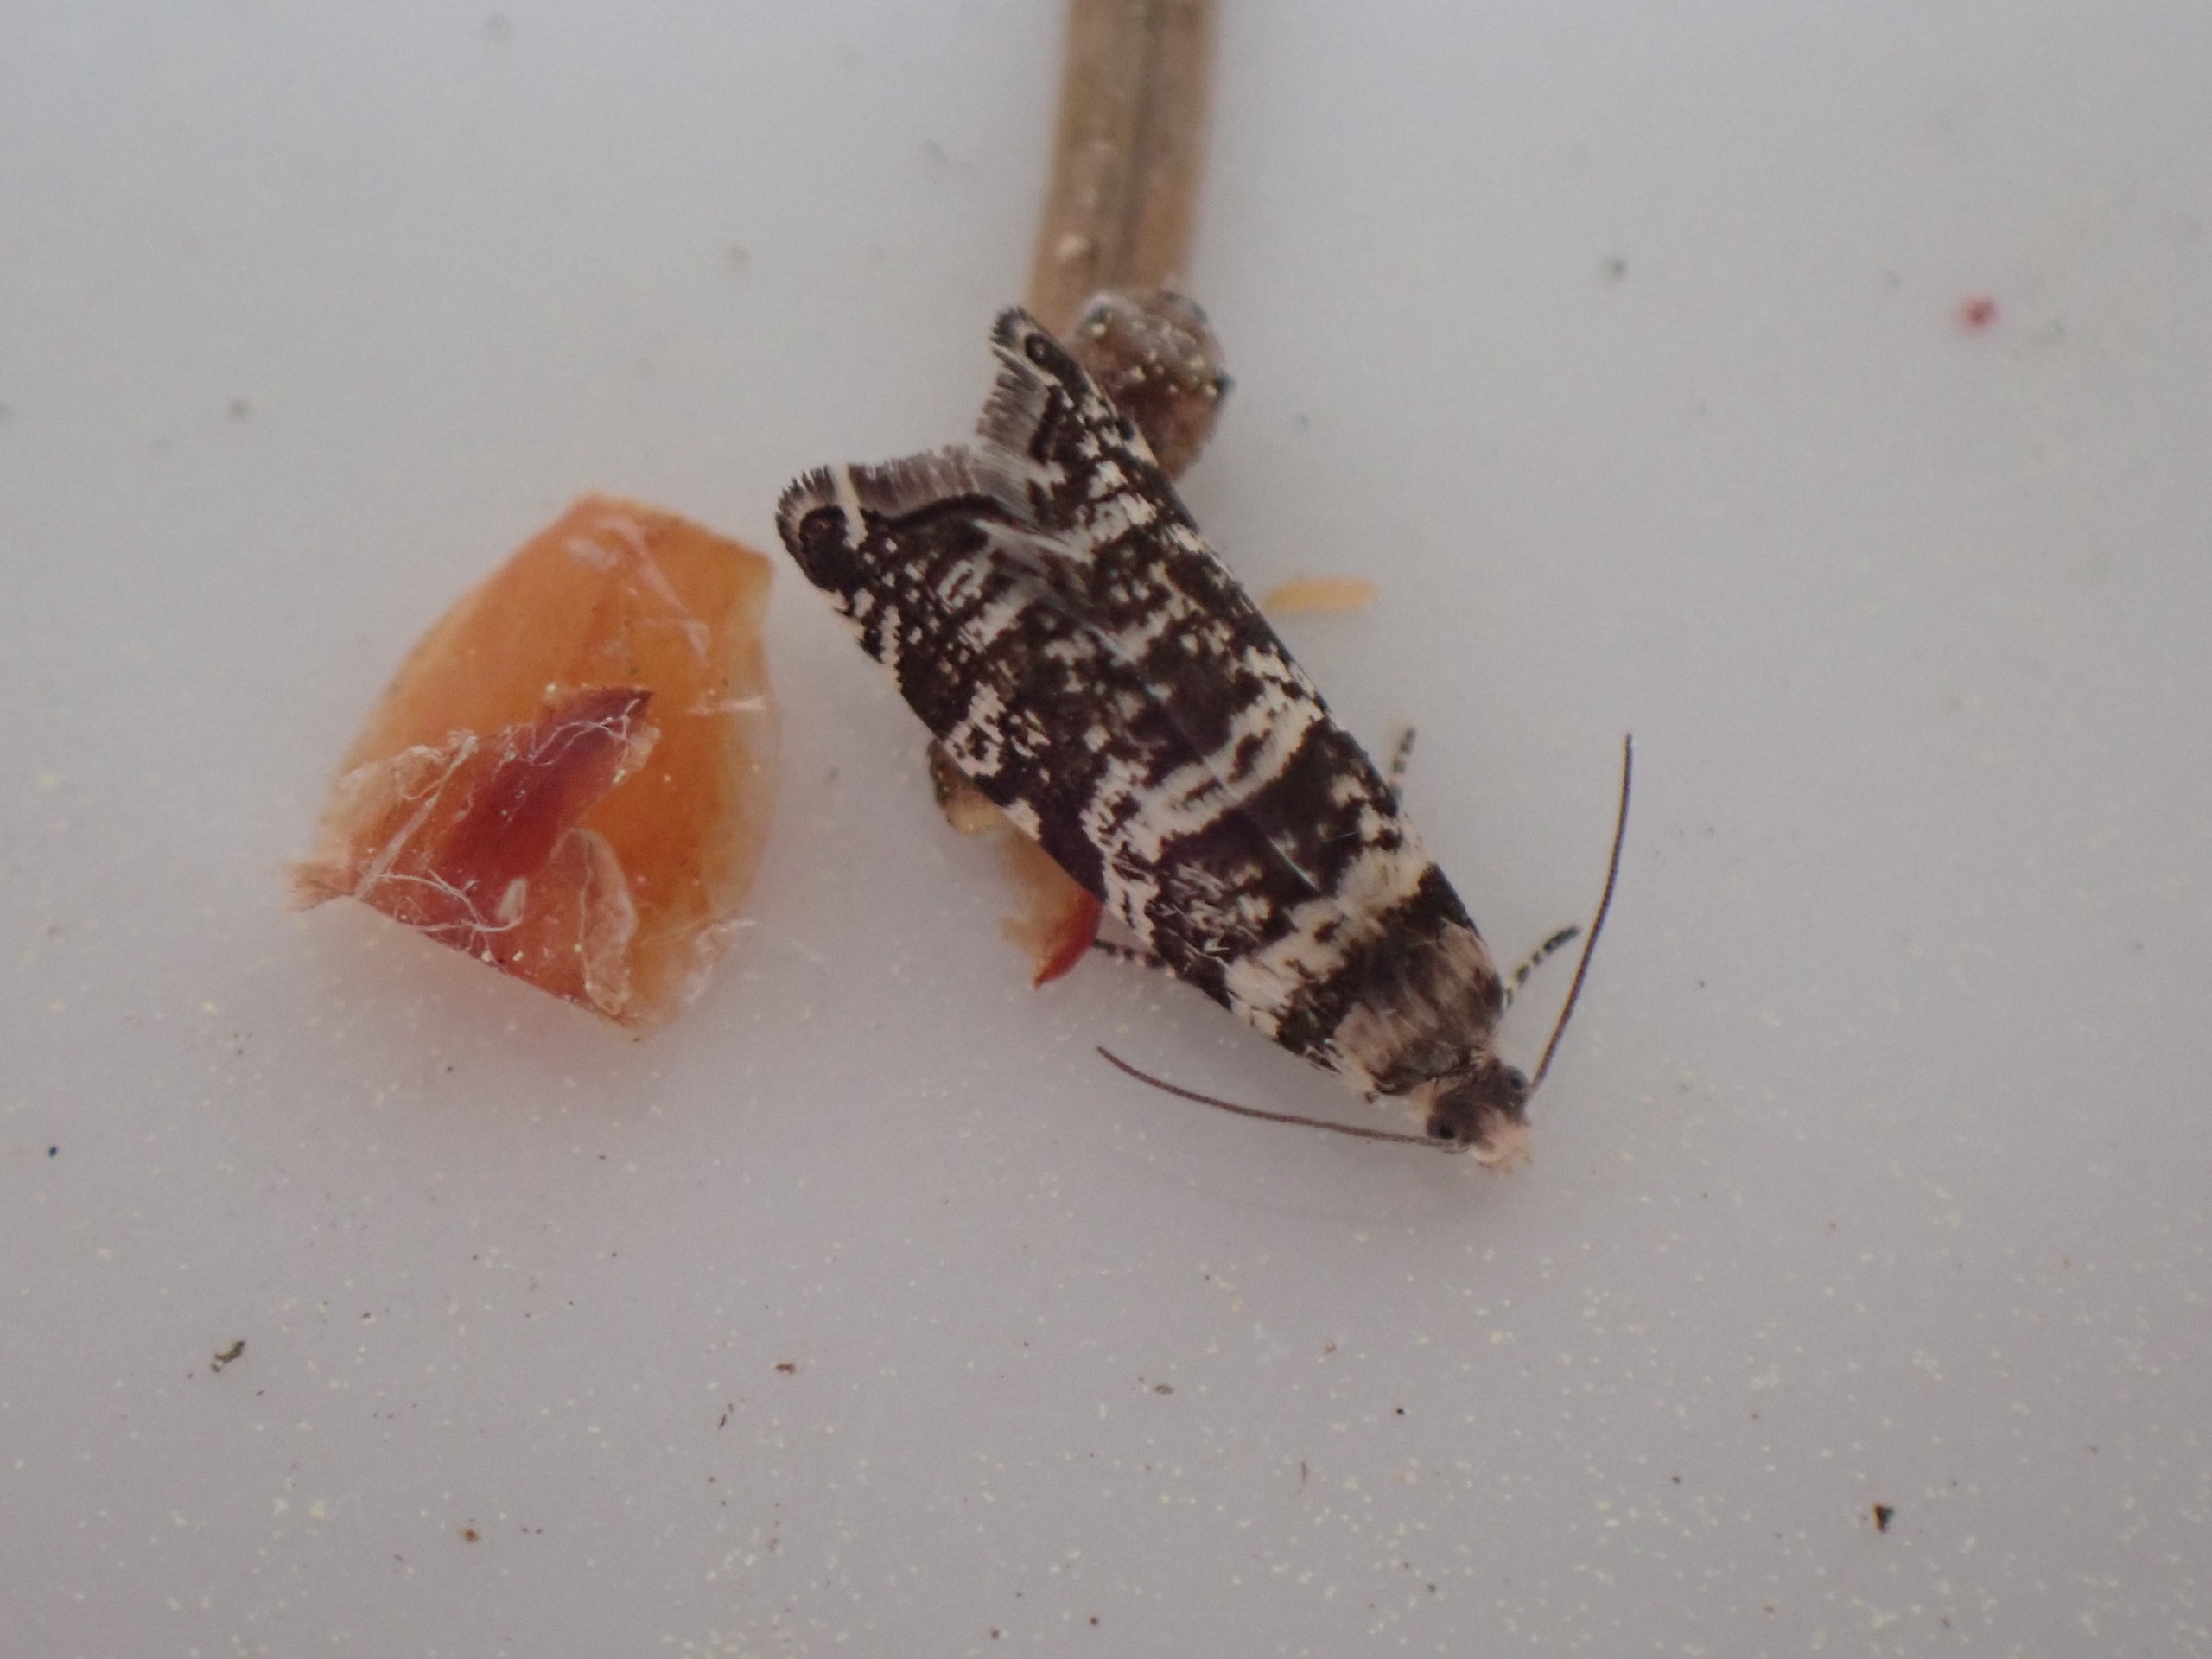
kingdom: Animalia
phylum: Arthropoda
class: Insecta
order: Lepidoptera
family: Tortricidae
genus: Epinotia
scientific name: Epinotia tedella
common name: Grannålevikler
